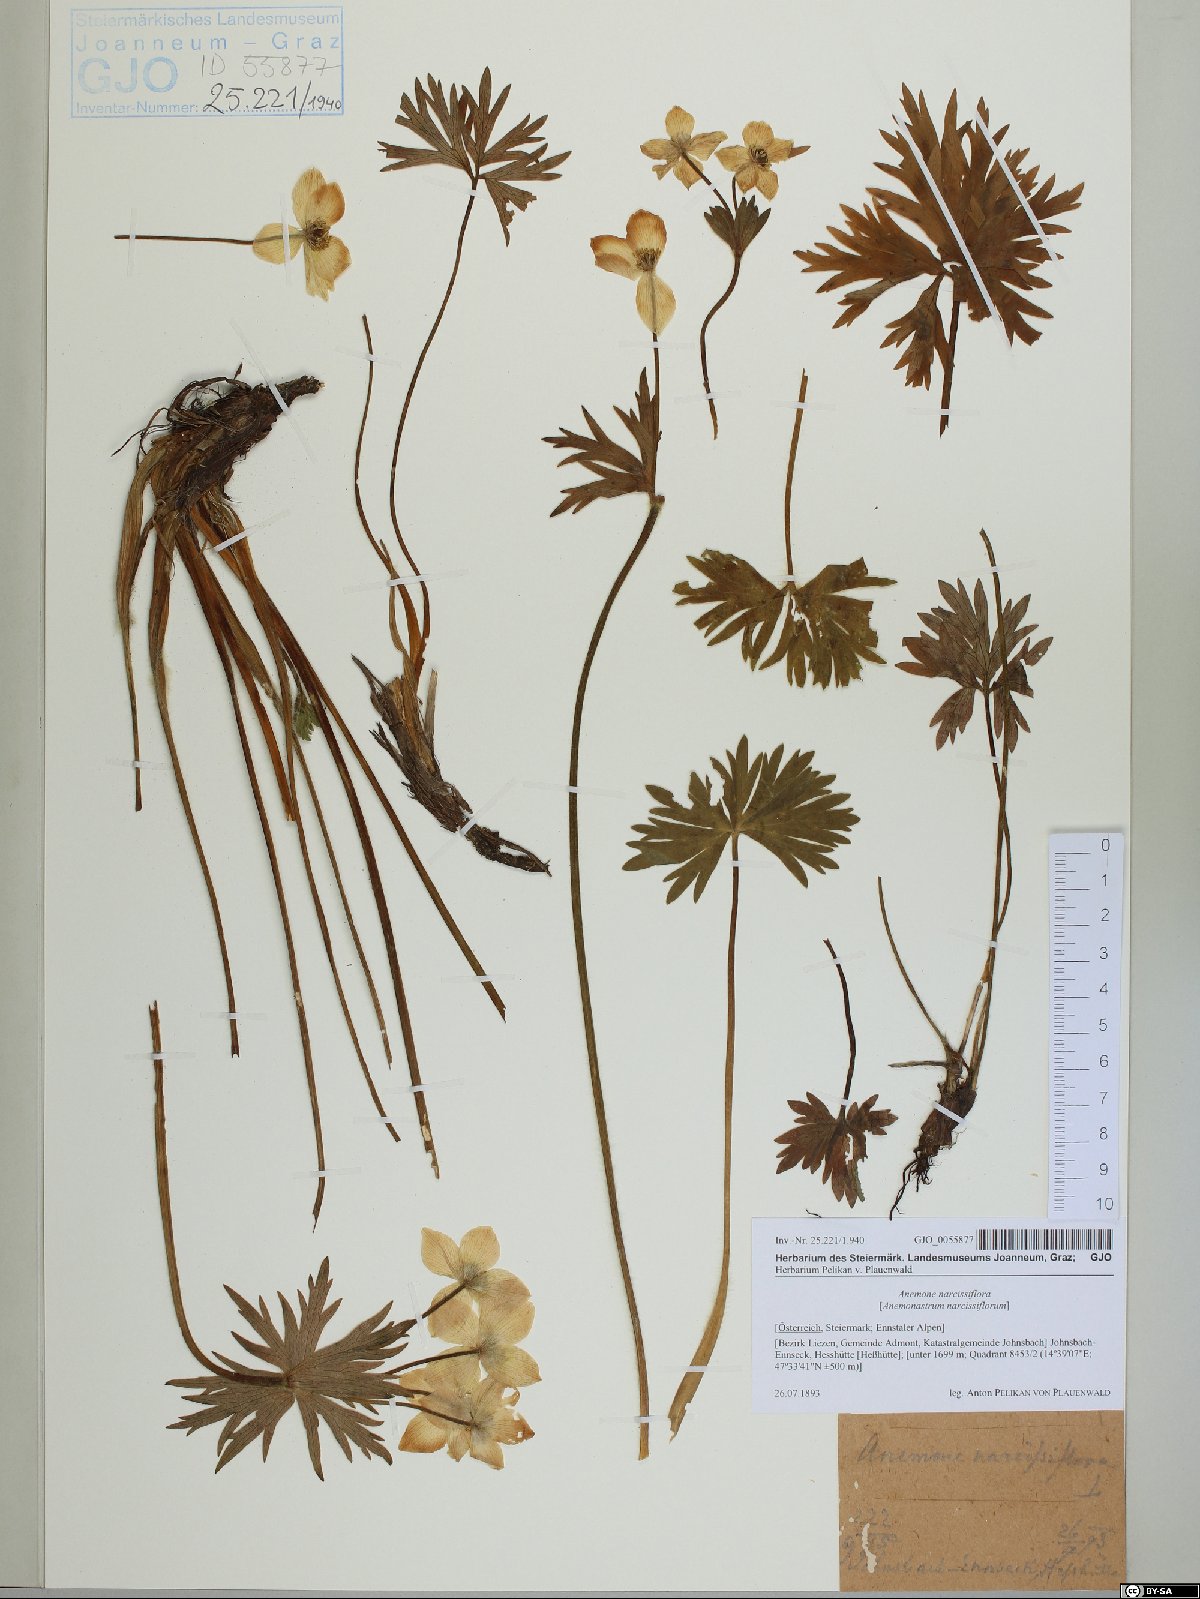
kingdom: Plantae
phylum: Tracheophyta
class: Magnoliopsida
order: Ranunculales
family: Ranunculaceae
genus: Anemonastrum
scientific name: Anemonastrum narcissiflorum
